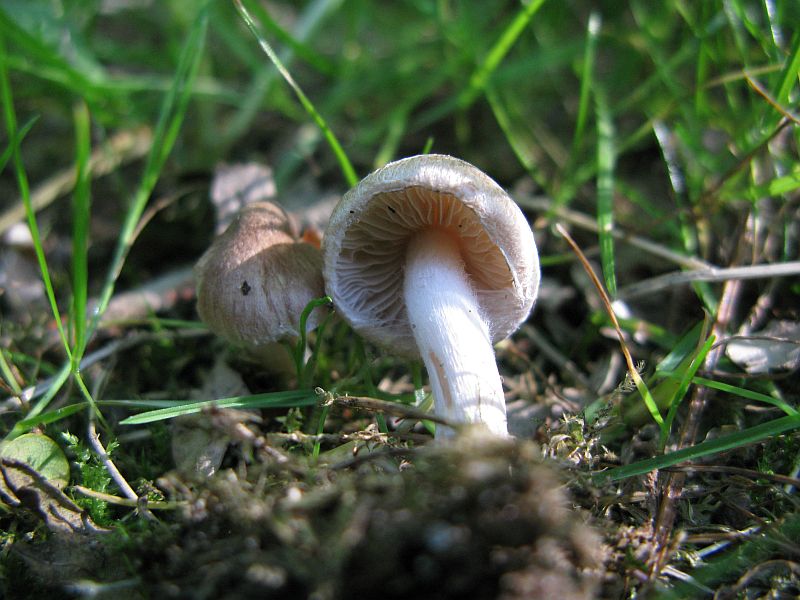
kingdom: Fungi
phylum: Basidiomycota
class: Agaricomycetes
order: Agaricales
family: Inocybaceae
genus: Inocybe
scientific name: Inocybe assimilata
